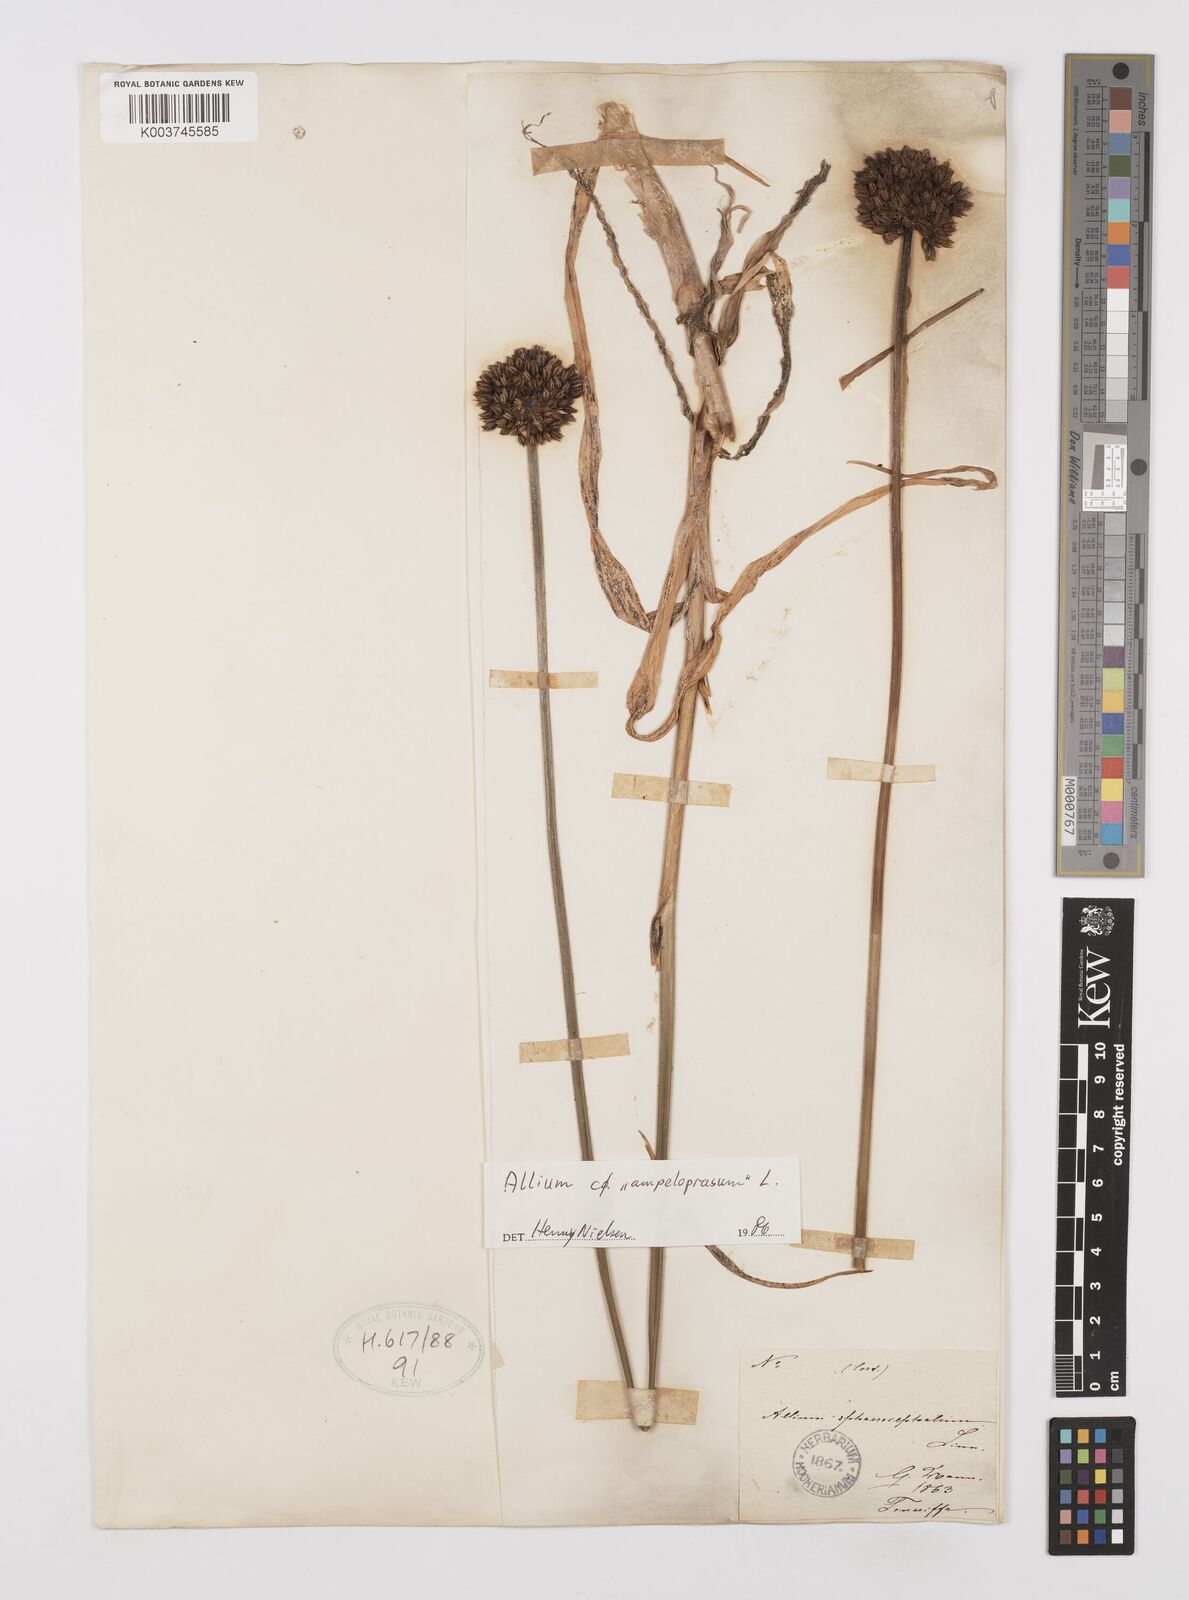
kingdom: Plantae
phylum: Tracheophyta
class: Liliopsida
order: Asparagales
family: Amaryllidaceae
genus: Allium
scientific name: Allium sphaerocephalon
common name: Round-headed leek
